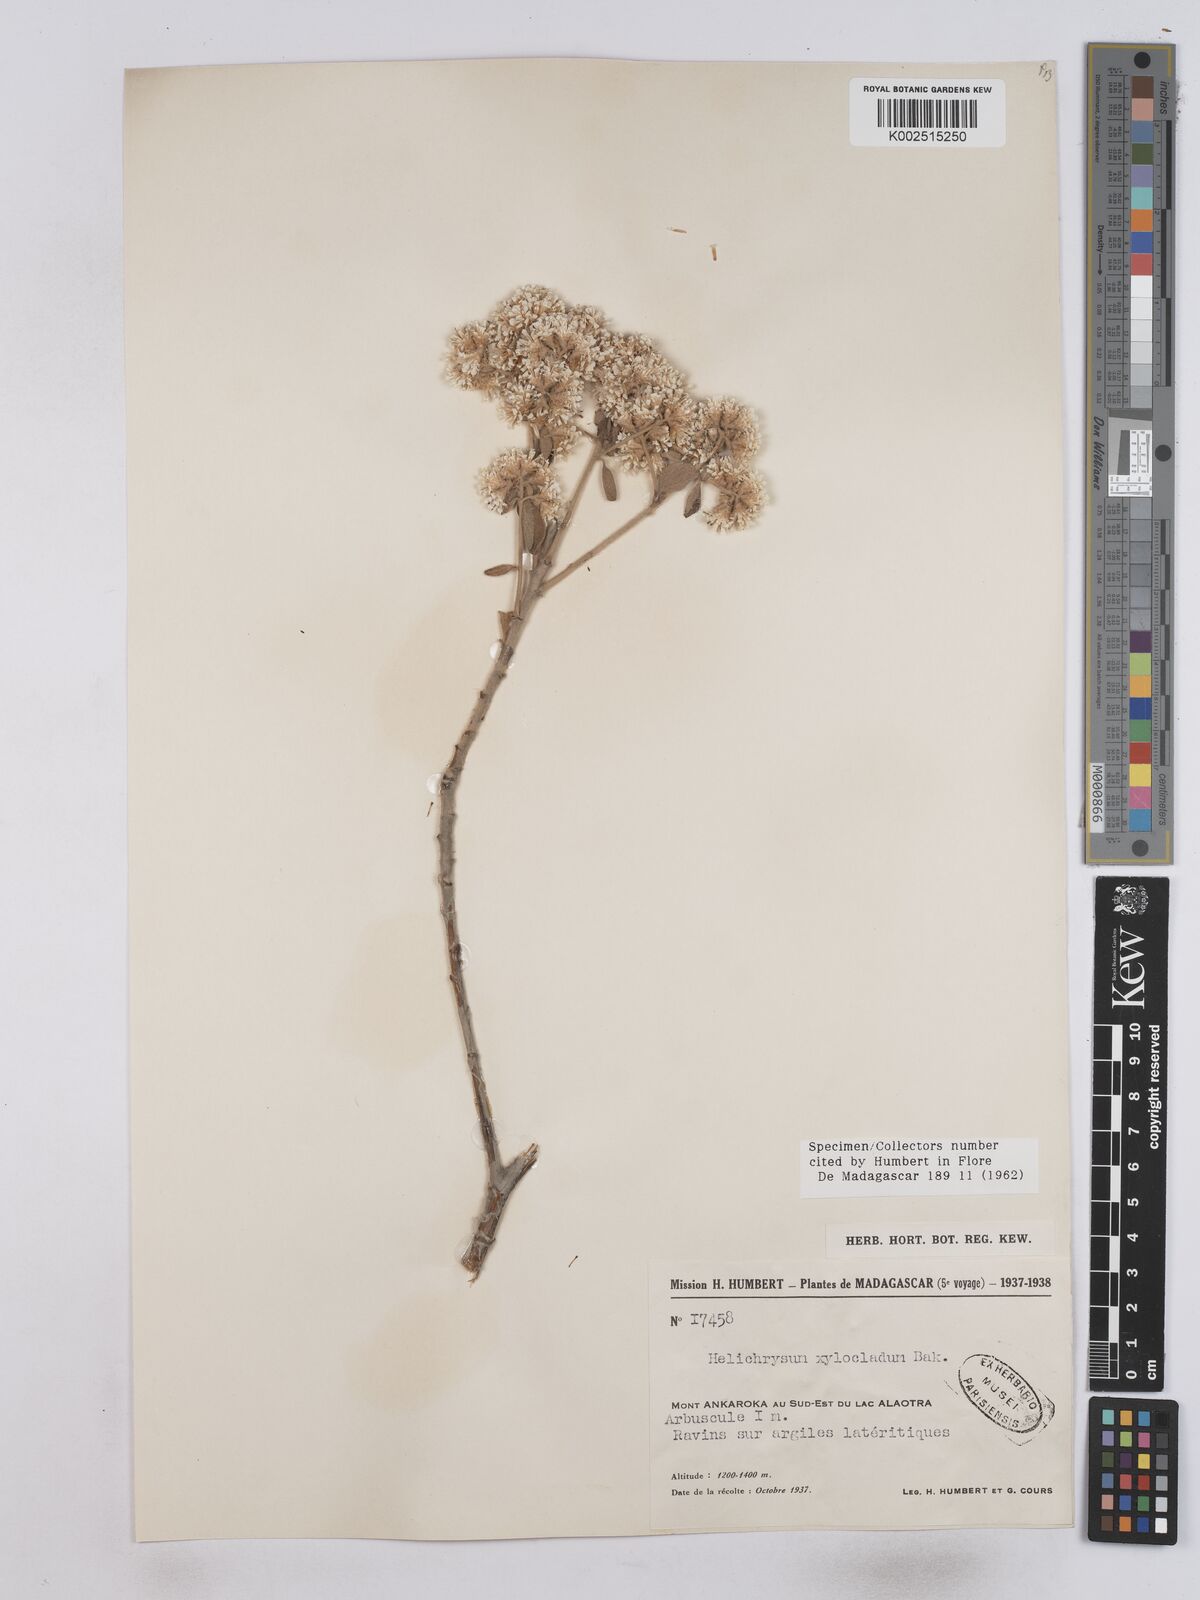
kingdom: Plantae
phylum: Tracheophyta
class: Magnoliopsida
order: Asterales
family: Asteraceae
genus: Helichrysum
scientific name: Helichrysum xylocladum
